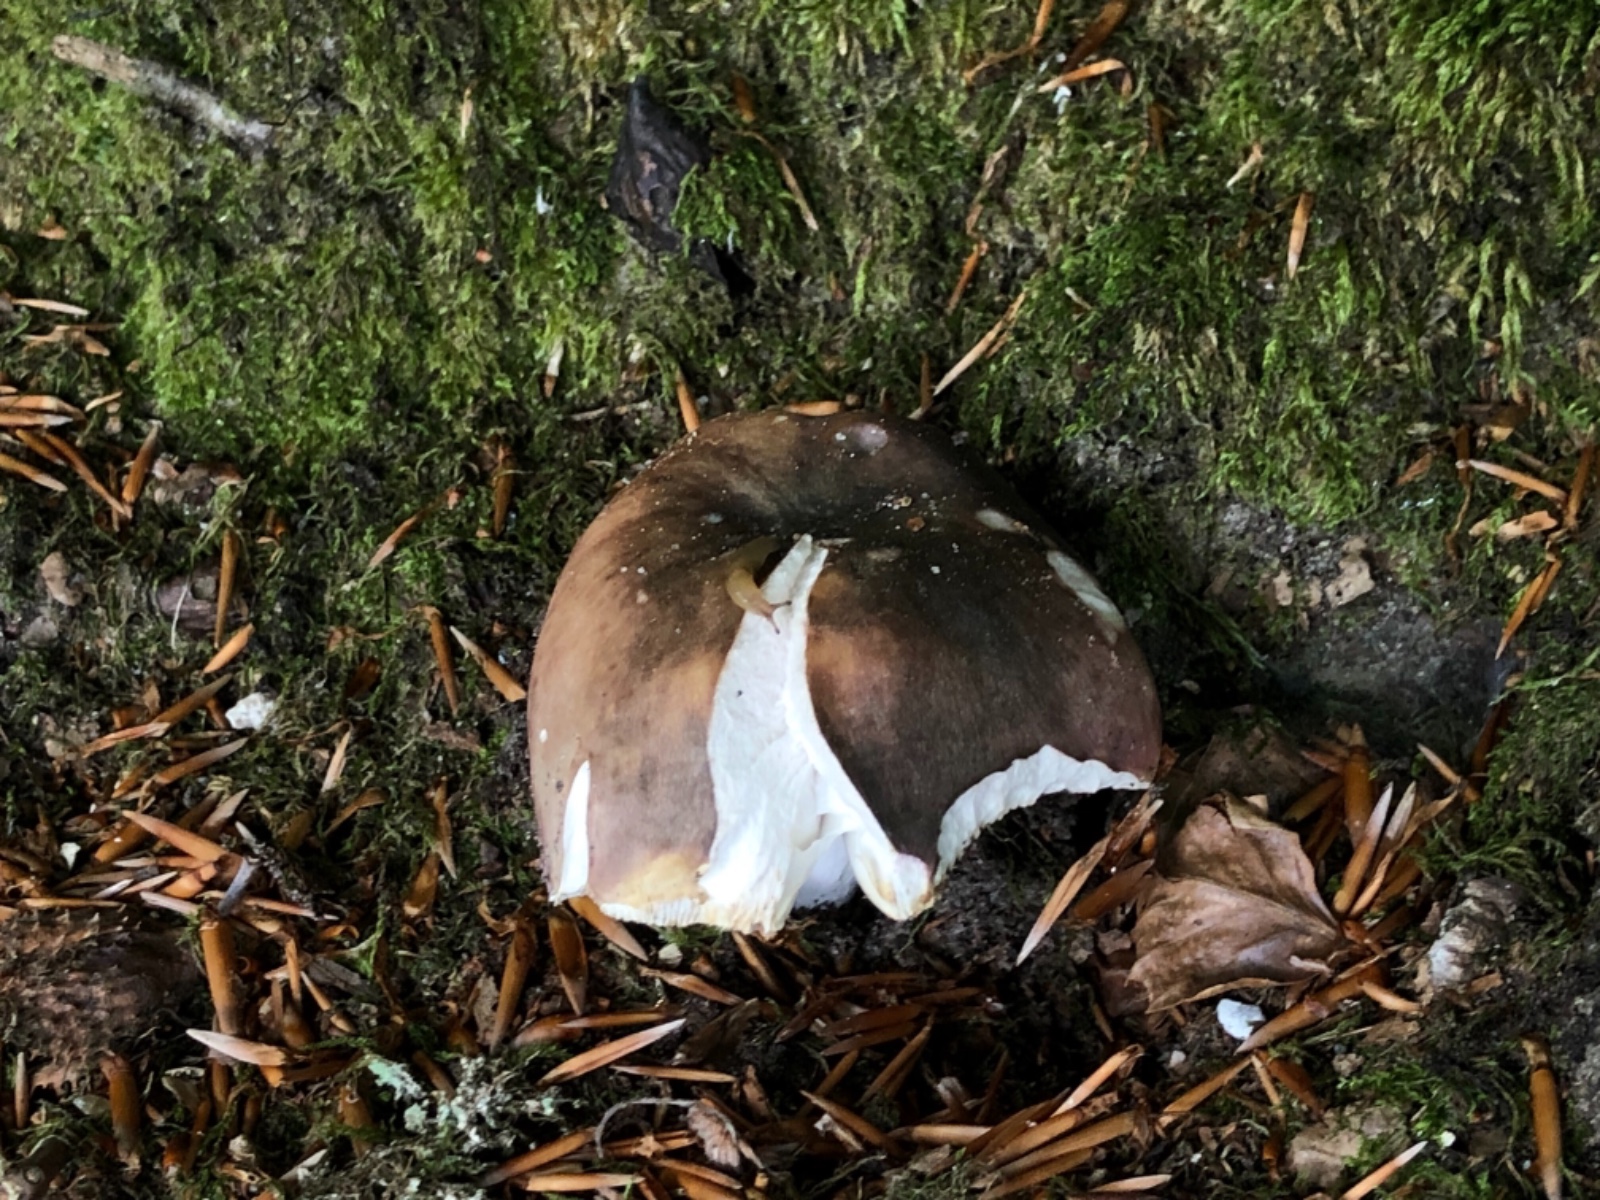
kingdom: Fungi
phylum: Basidiomycota
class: Agaricomycetes
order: Russulales
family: Russulaceae
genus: Russula
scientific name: Russula cyanoxantha
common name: broget skørhat
